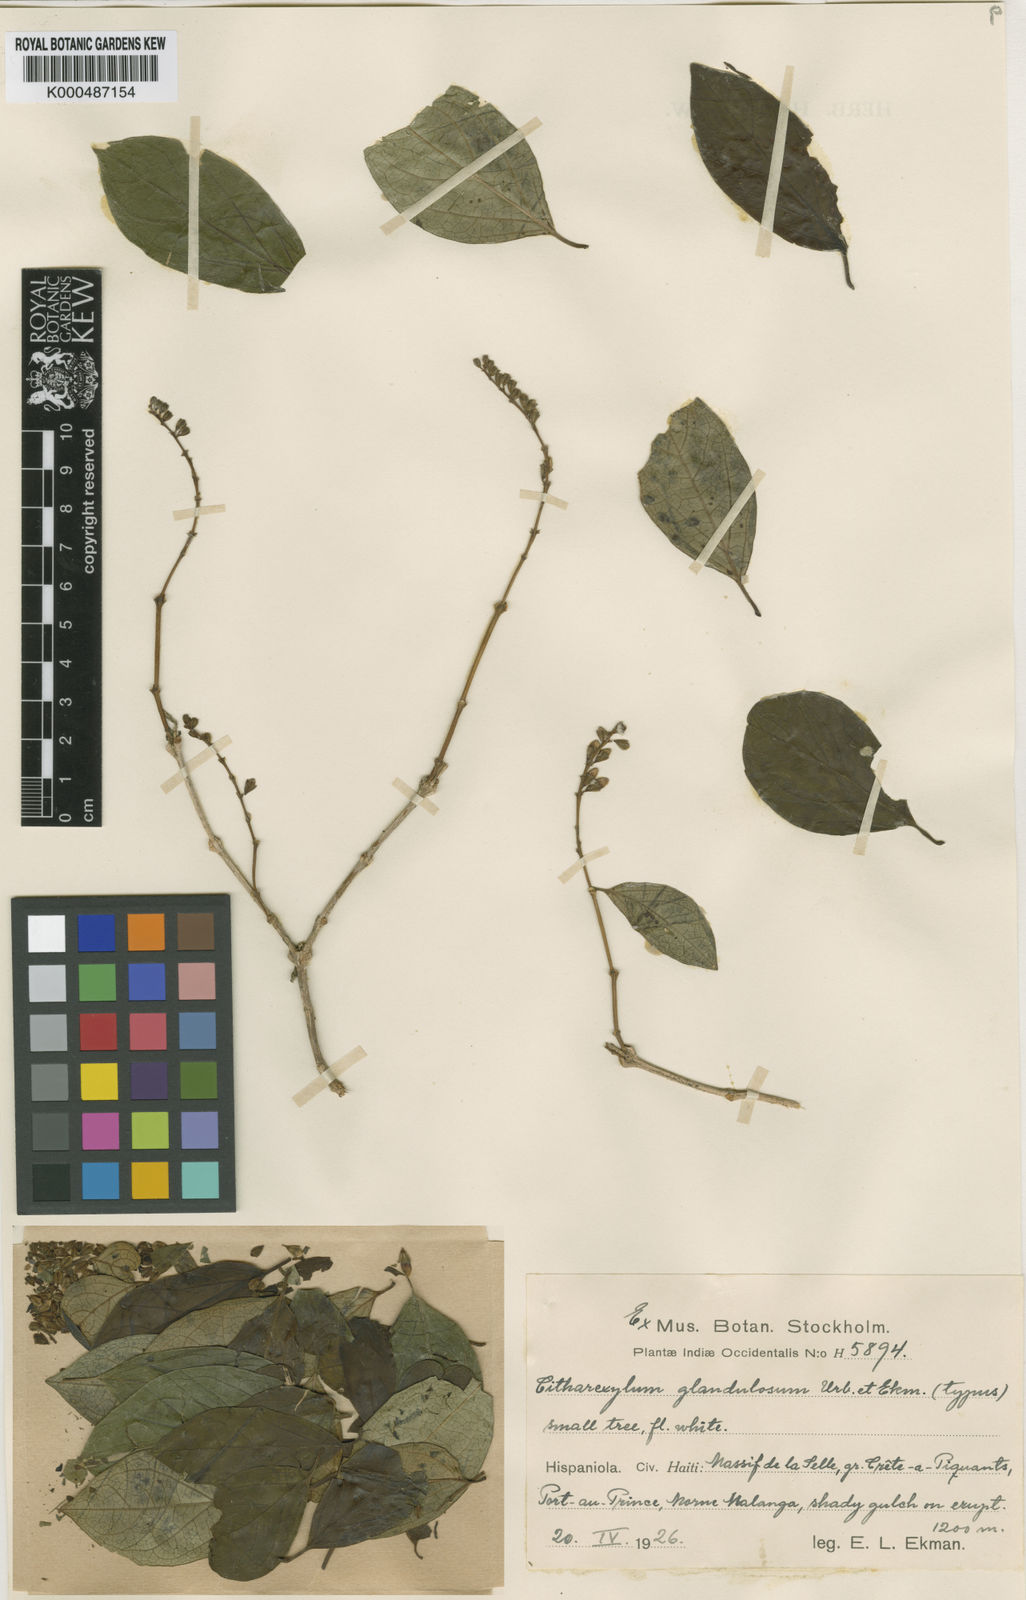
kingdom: Plantae
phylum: Tracheophyta
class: Magnoliopsida
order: Lamiales
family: Verbenaceae
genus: Citharexylum
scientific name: Citharexylum discolor
